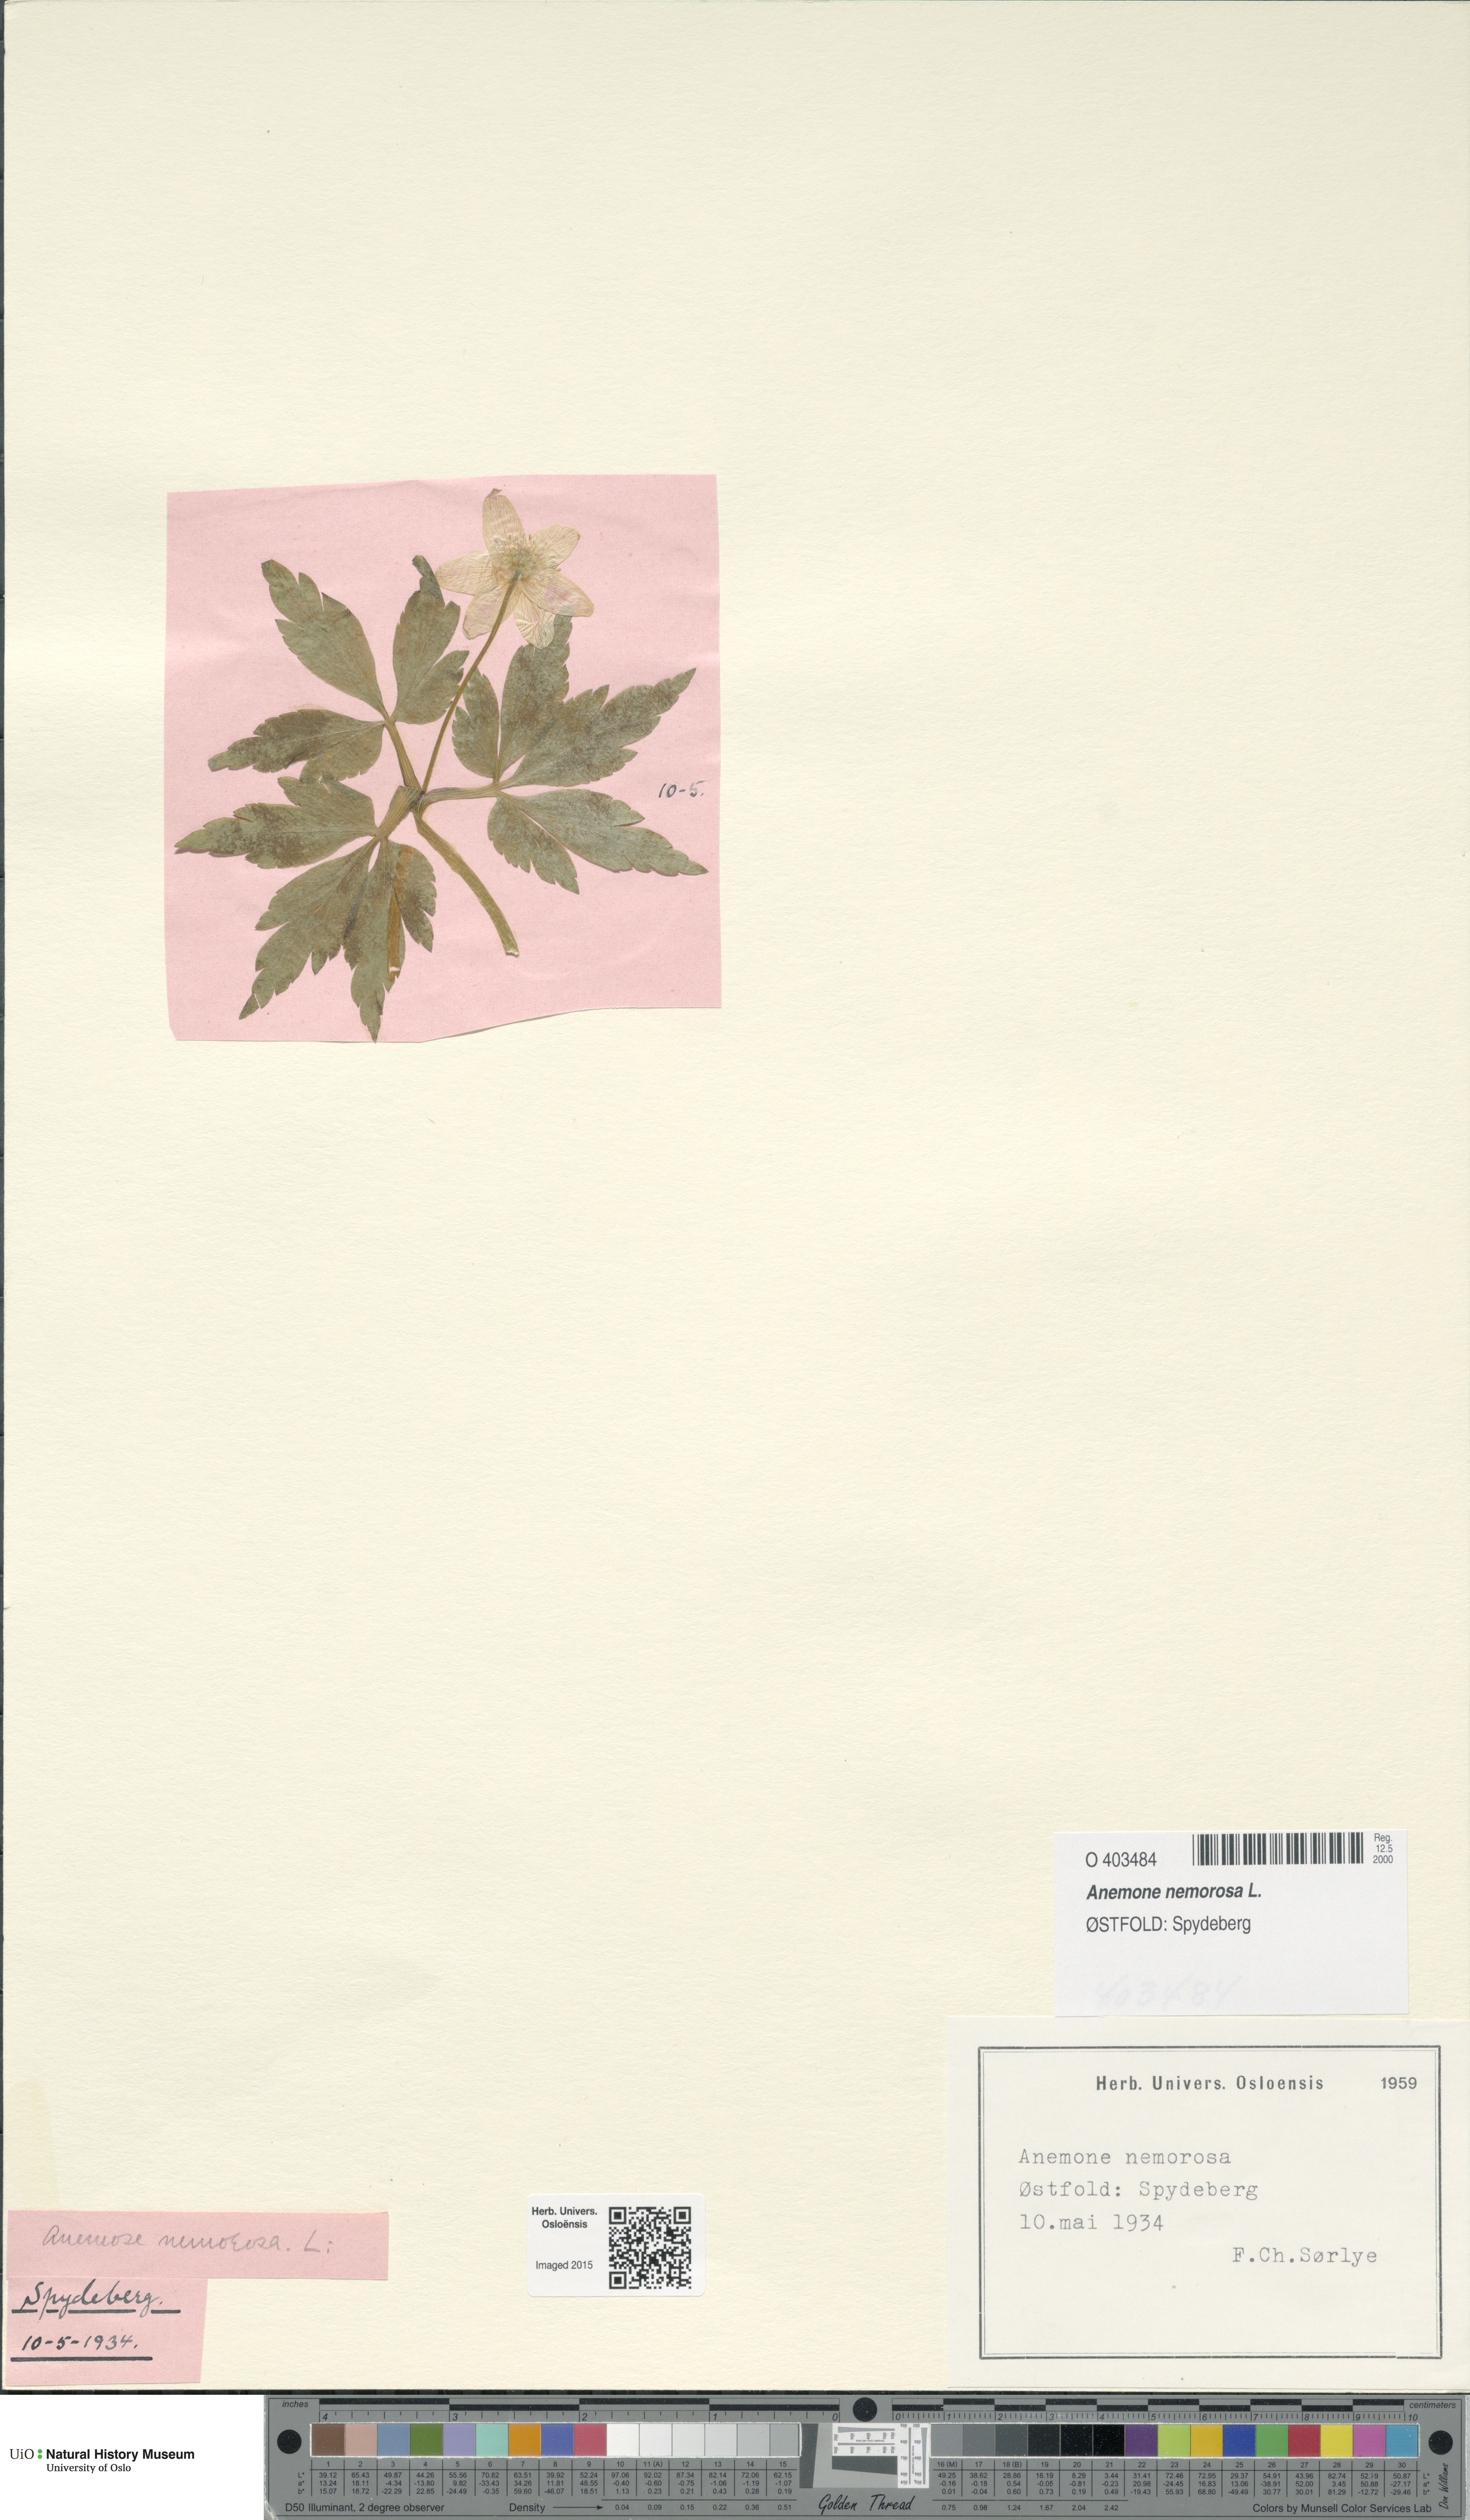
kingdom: Plantae
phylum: Tracheophyta
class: Magnoliopsida
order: Ranunculales
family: Ranunculaceae
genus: Anemone
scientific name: Anemone nemorosa
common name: Wood anemone
